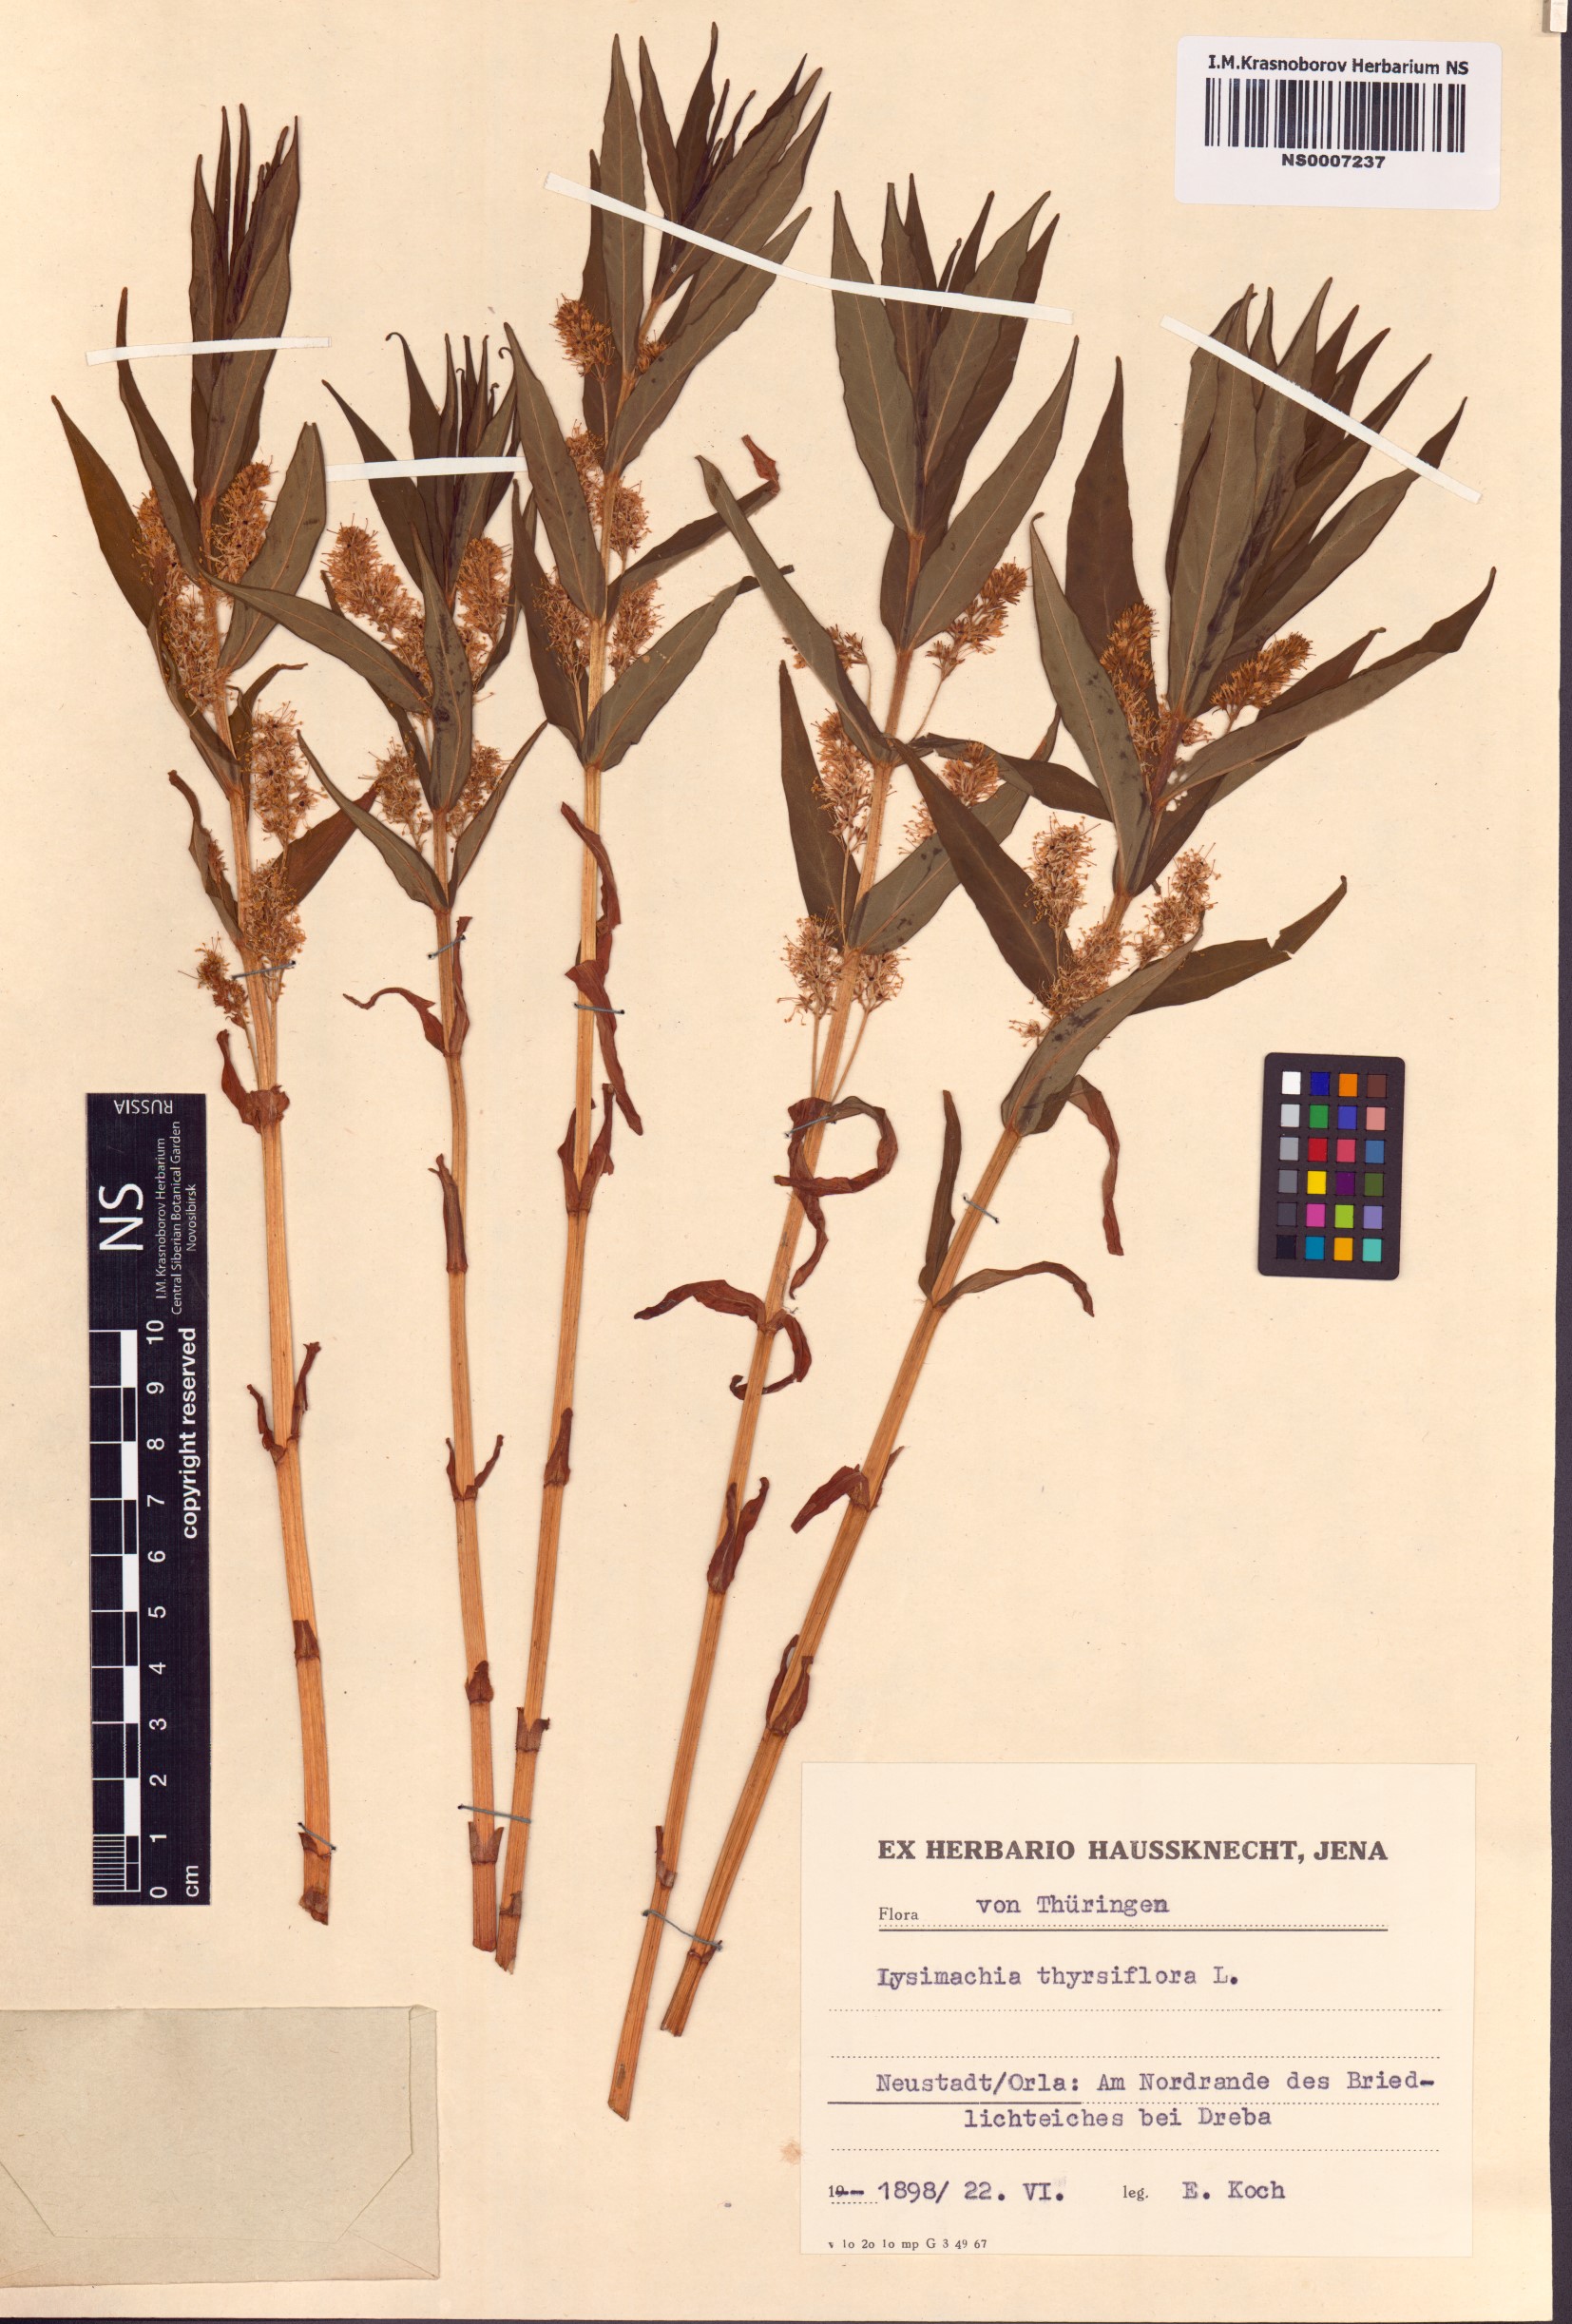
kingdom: Plantae
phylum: Tracheophyta
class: Magnoliopsida
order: Ericales
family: Primulaceae
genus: Lysimachia
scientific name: Lysimachia thyrsiflora
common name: Tufted loosestrife
